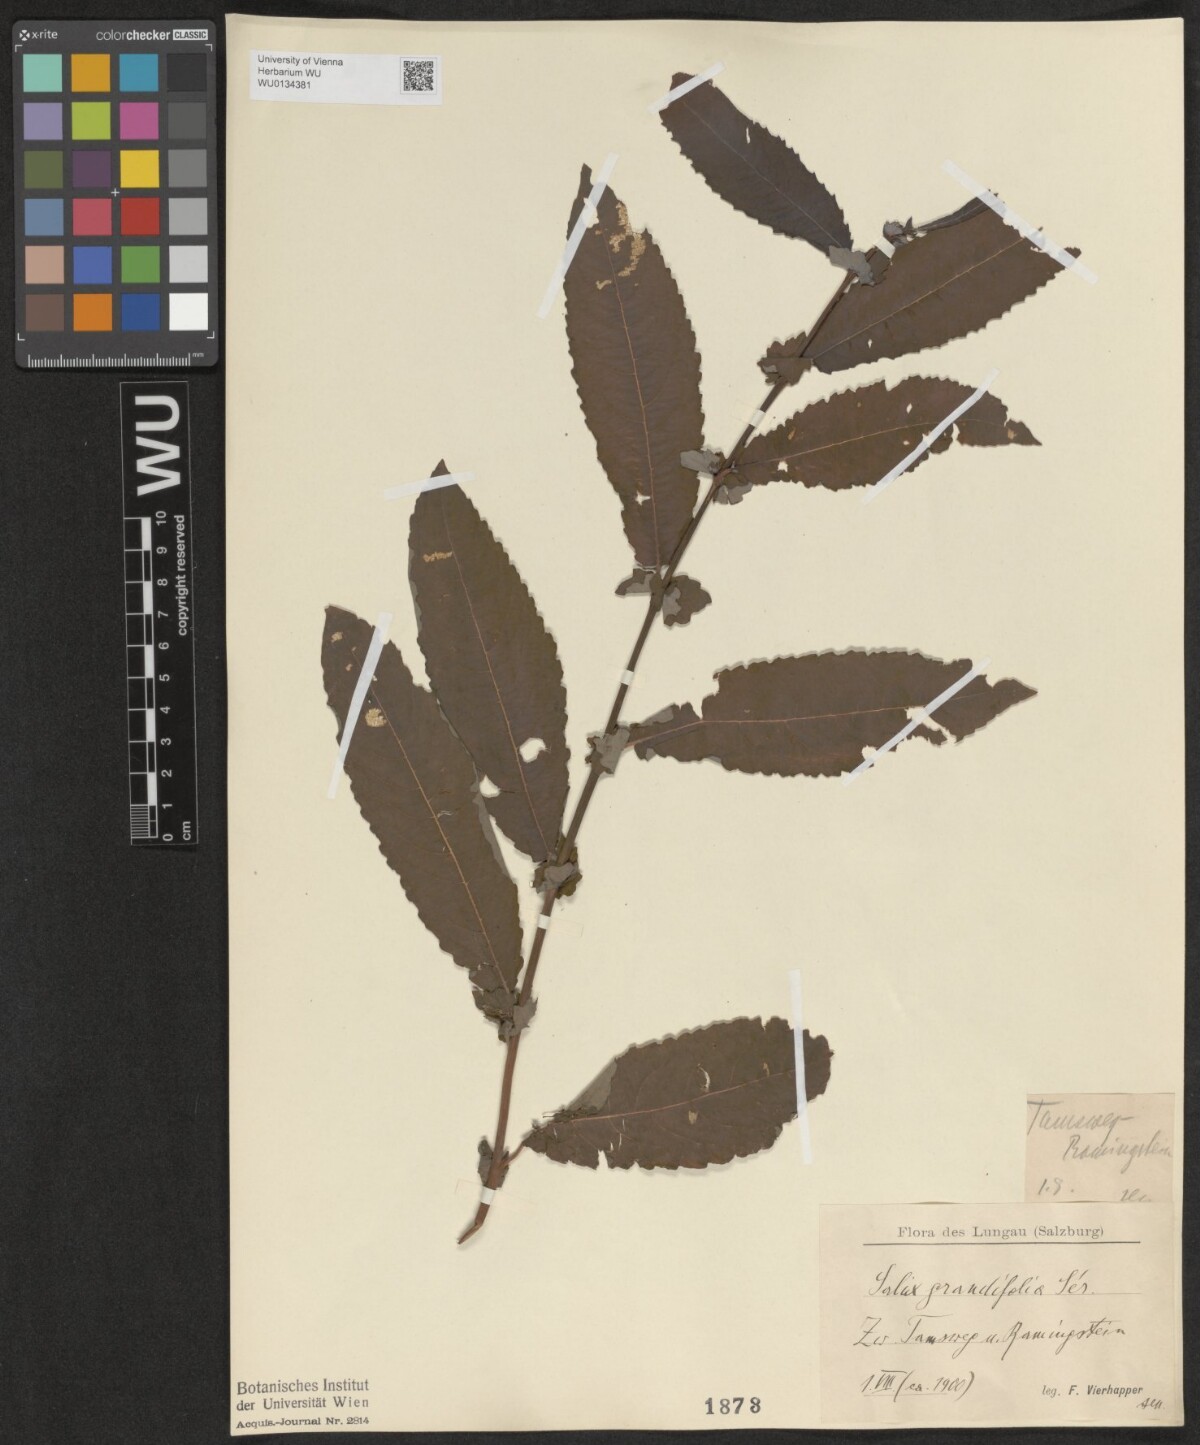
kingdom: Plantae
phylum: Tracheophyta
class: Magnoliopsida
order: Malpighiales
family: Salicaceae
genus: Salix
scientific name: Salix appendiculata
